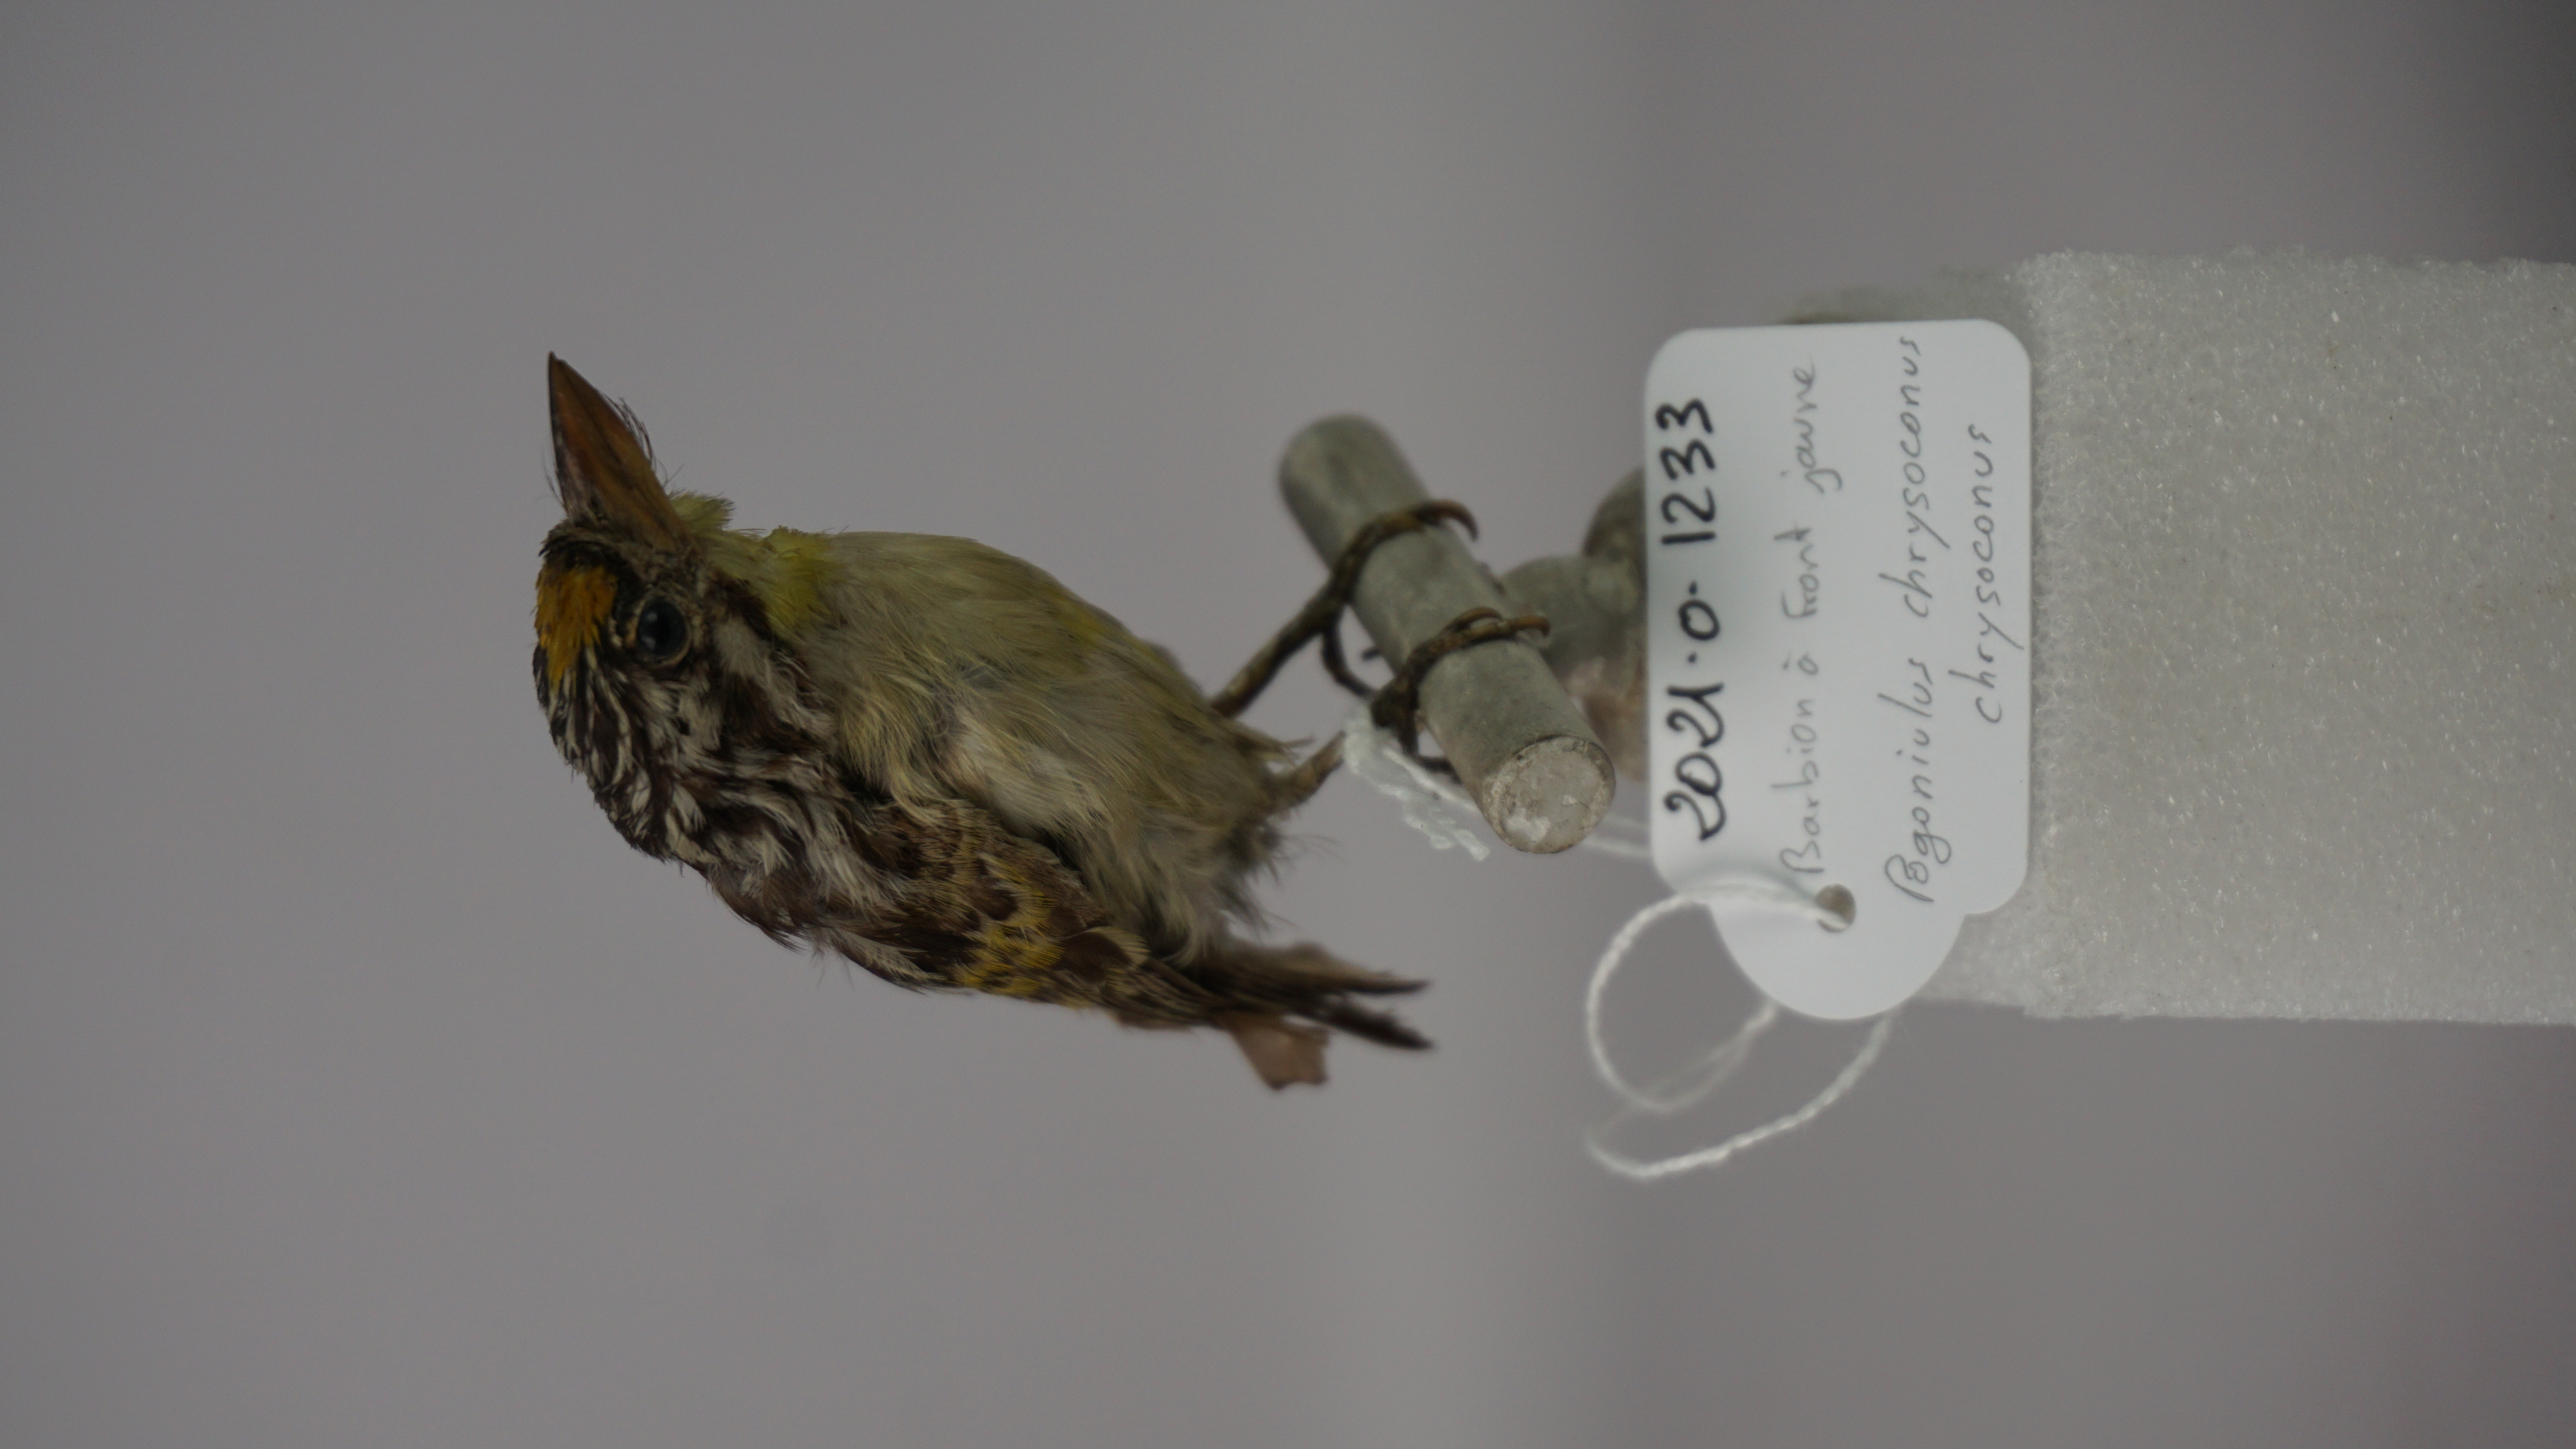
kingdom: Animalia
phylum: Chordata
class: Aves
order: Piciformes
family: Lybiidae
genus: Pogoniulus
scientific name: Pogoniulus chrysoconus
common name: Yellow-fronted tinkerbird
